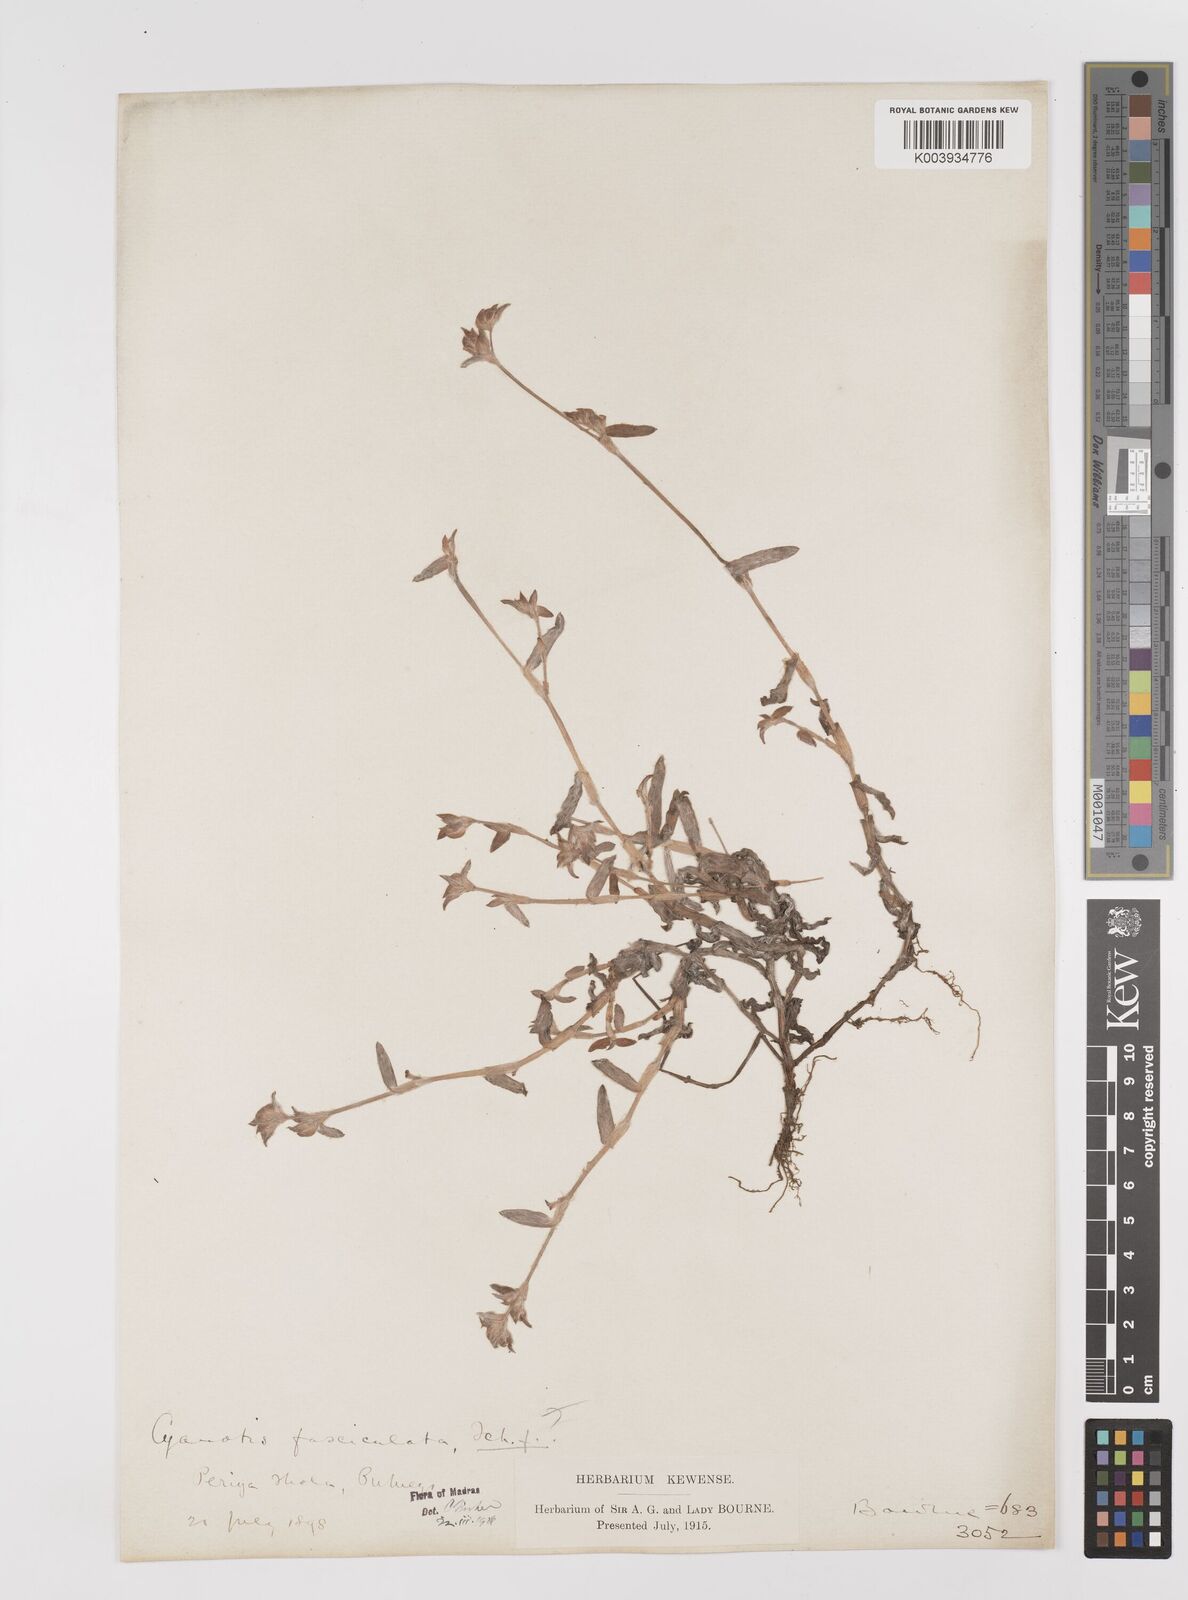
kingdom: Plantae
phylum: Tracheophyta
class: Liliopsida
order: Commelinales
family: Commelinaceae
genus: Cyanotis
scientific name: Cyanotis fasciculata
